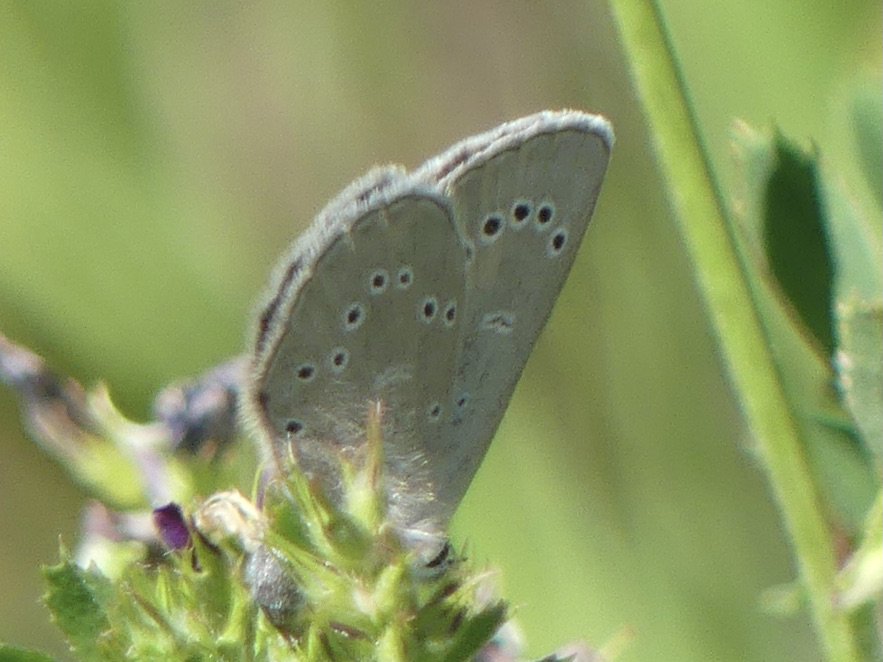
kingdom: Animalia
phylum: Arthropoda
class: Insecta
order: Lepidoptera
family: Lycaenidae
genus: Glaucopsyche
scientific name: Glaucopsyche lygdamus
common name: Silvery Blue
